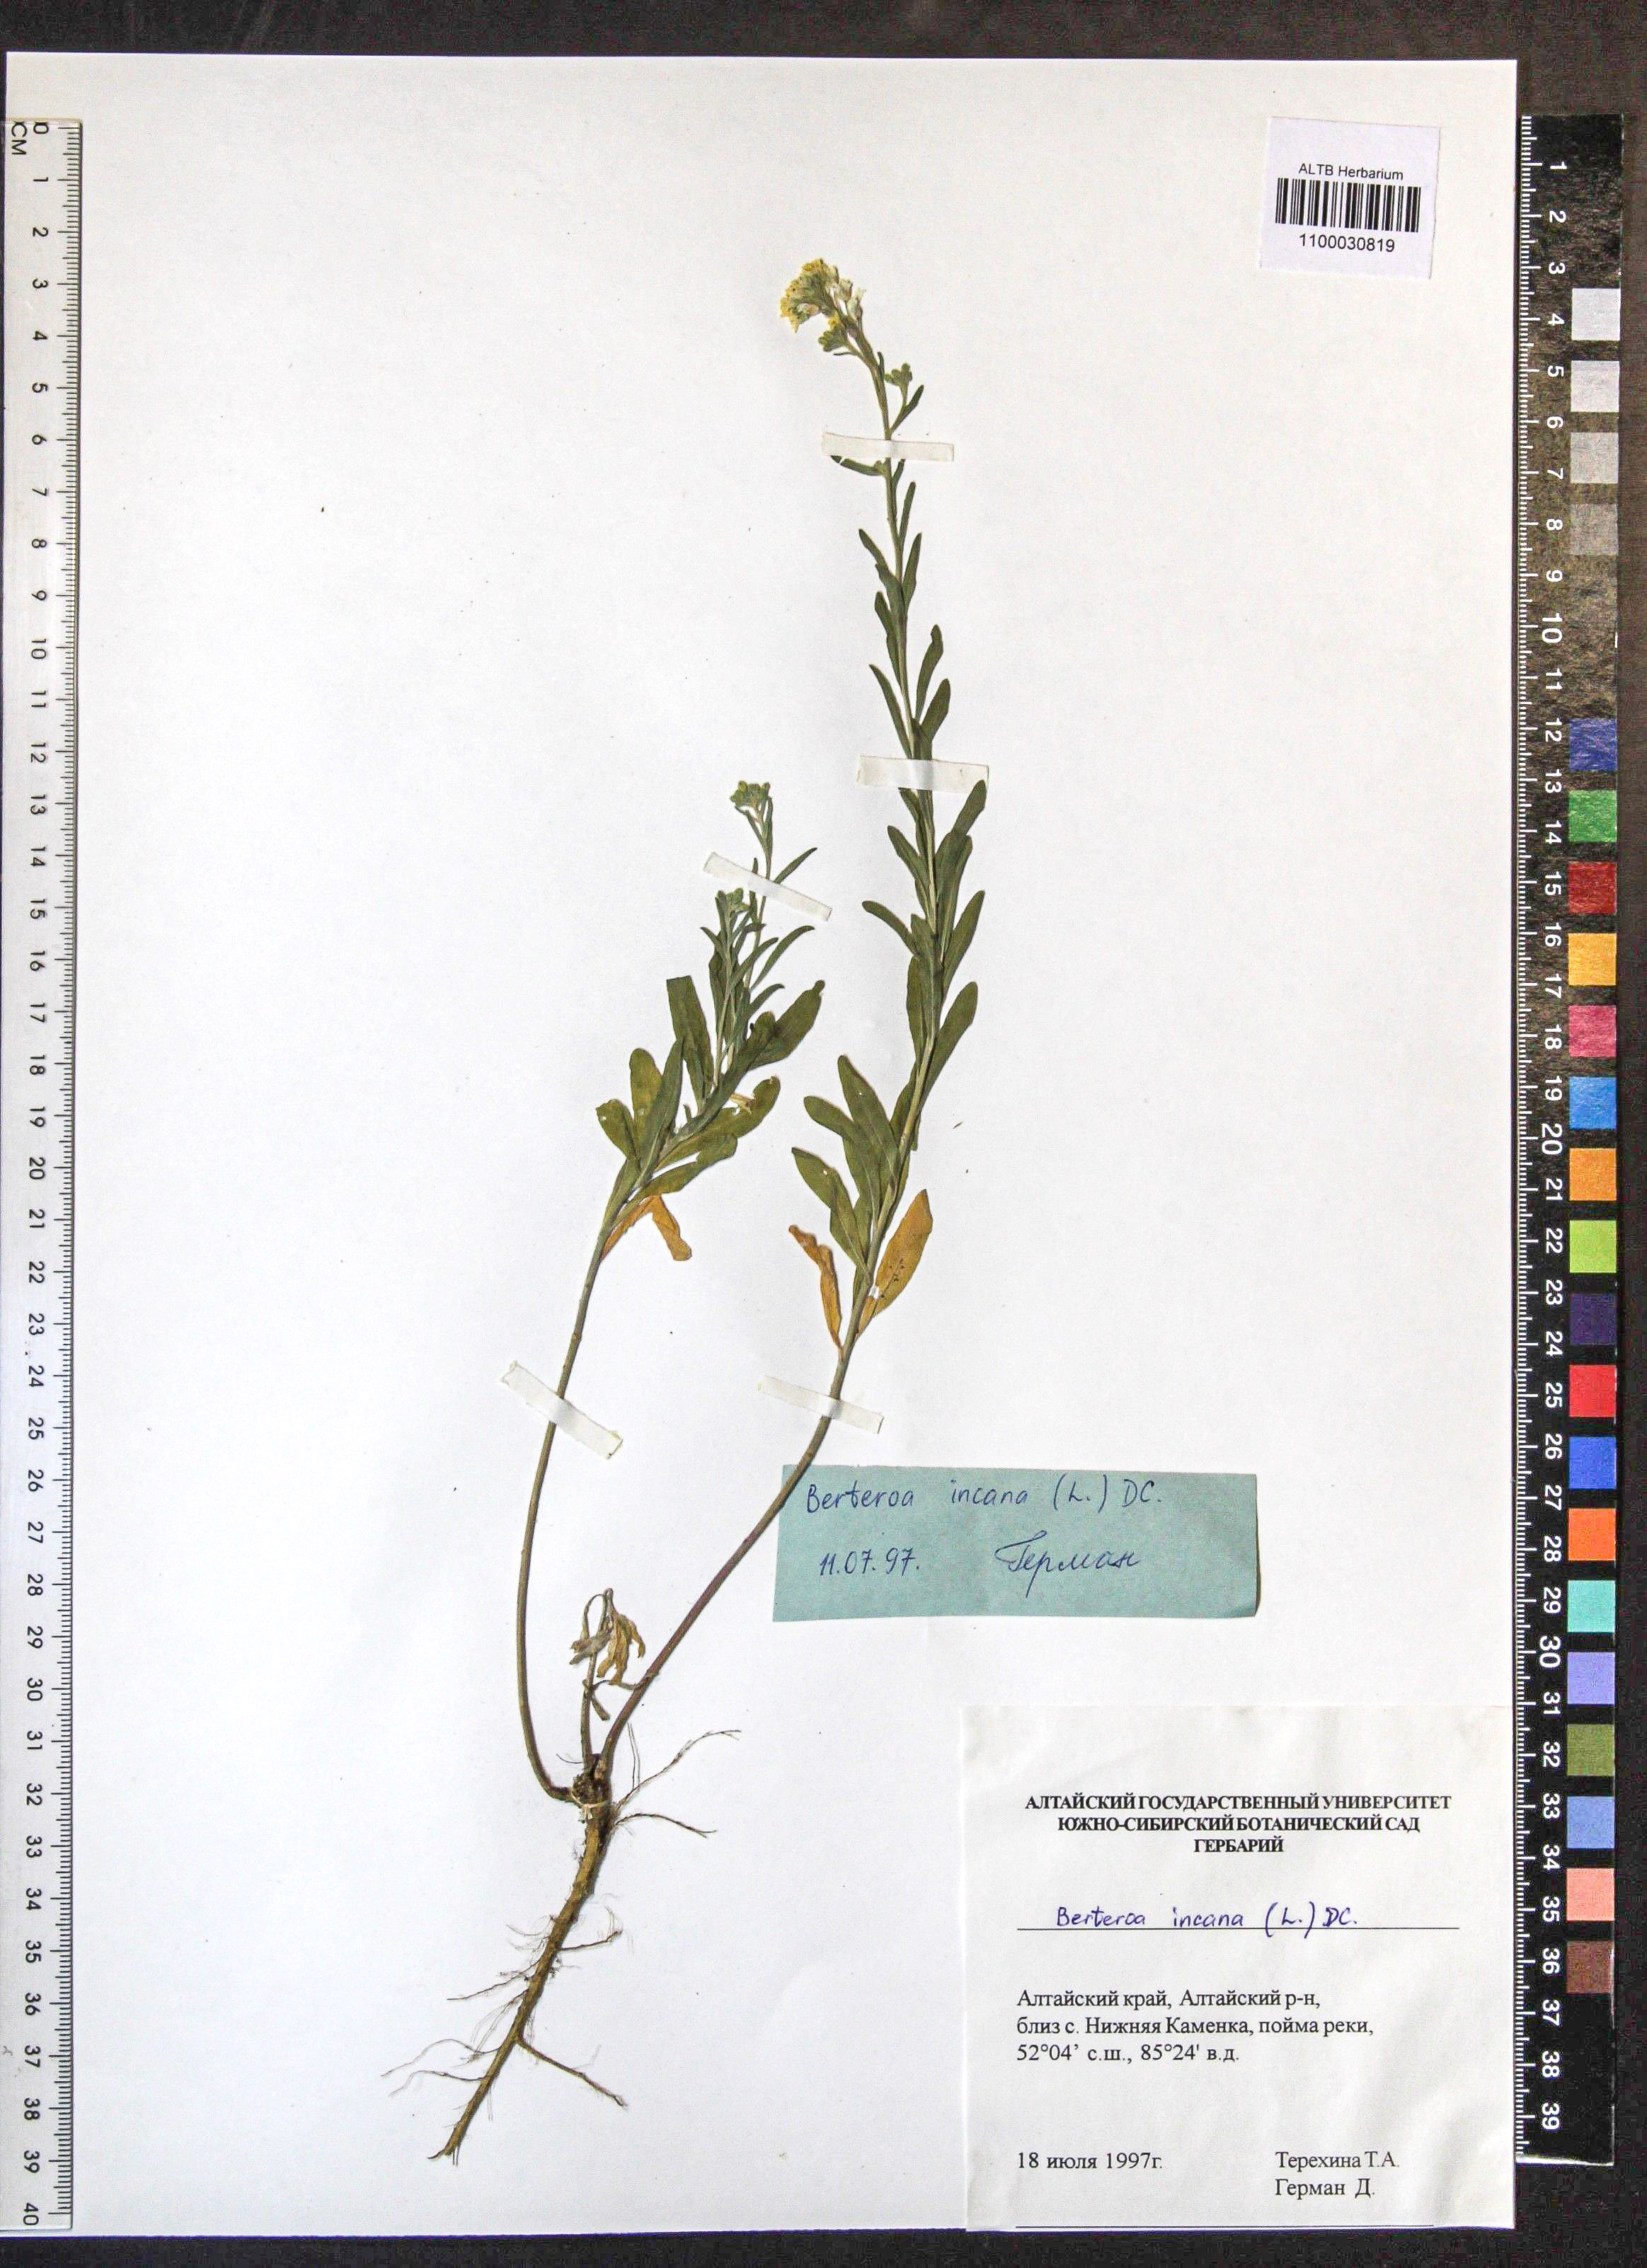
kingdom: Plantae
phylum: Tracheophyta
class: Magnoliopsida
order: Brassicales
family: Brassicaceae
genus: Berteroa
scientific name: Berteroa incana
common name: Hoary alison
